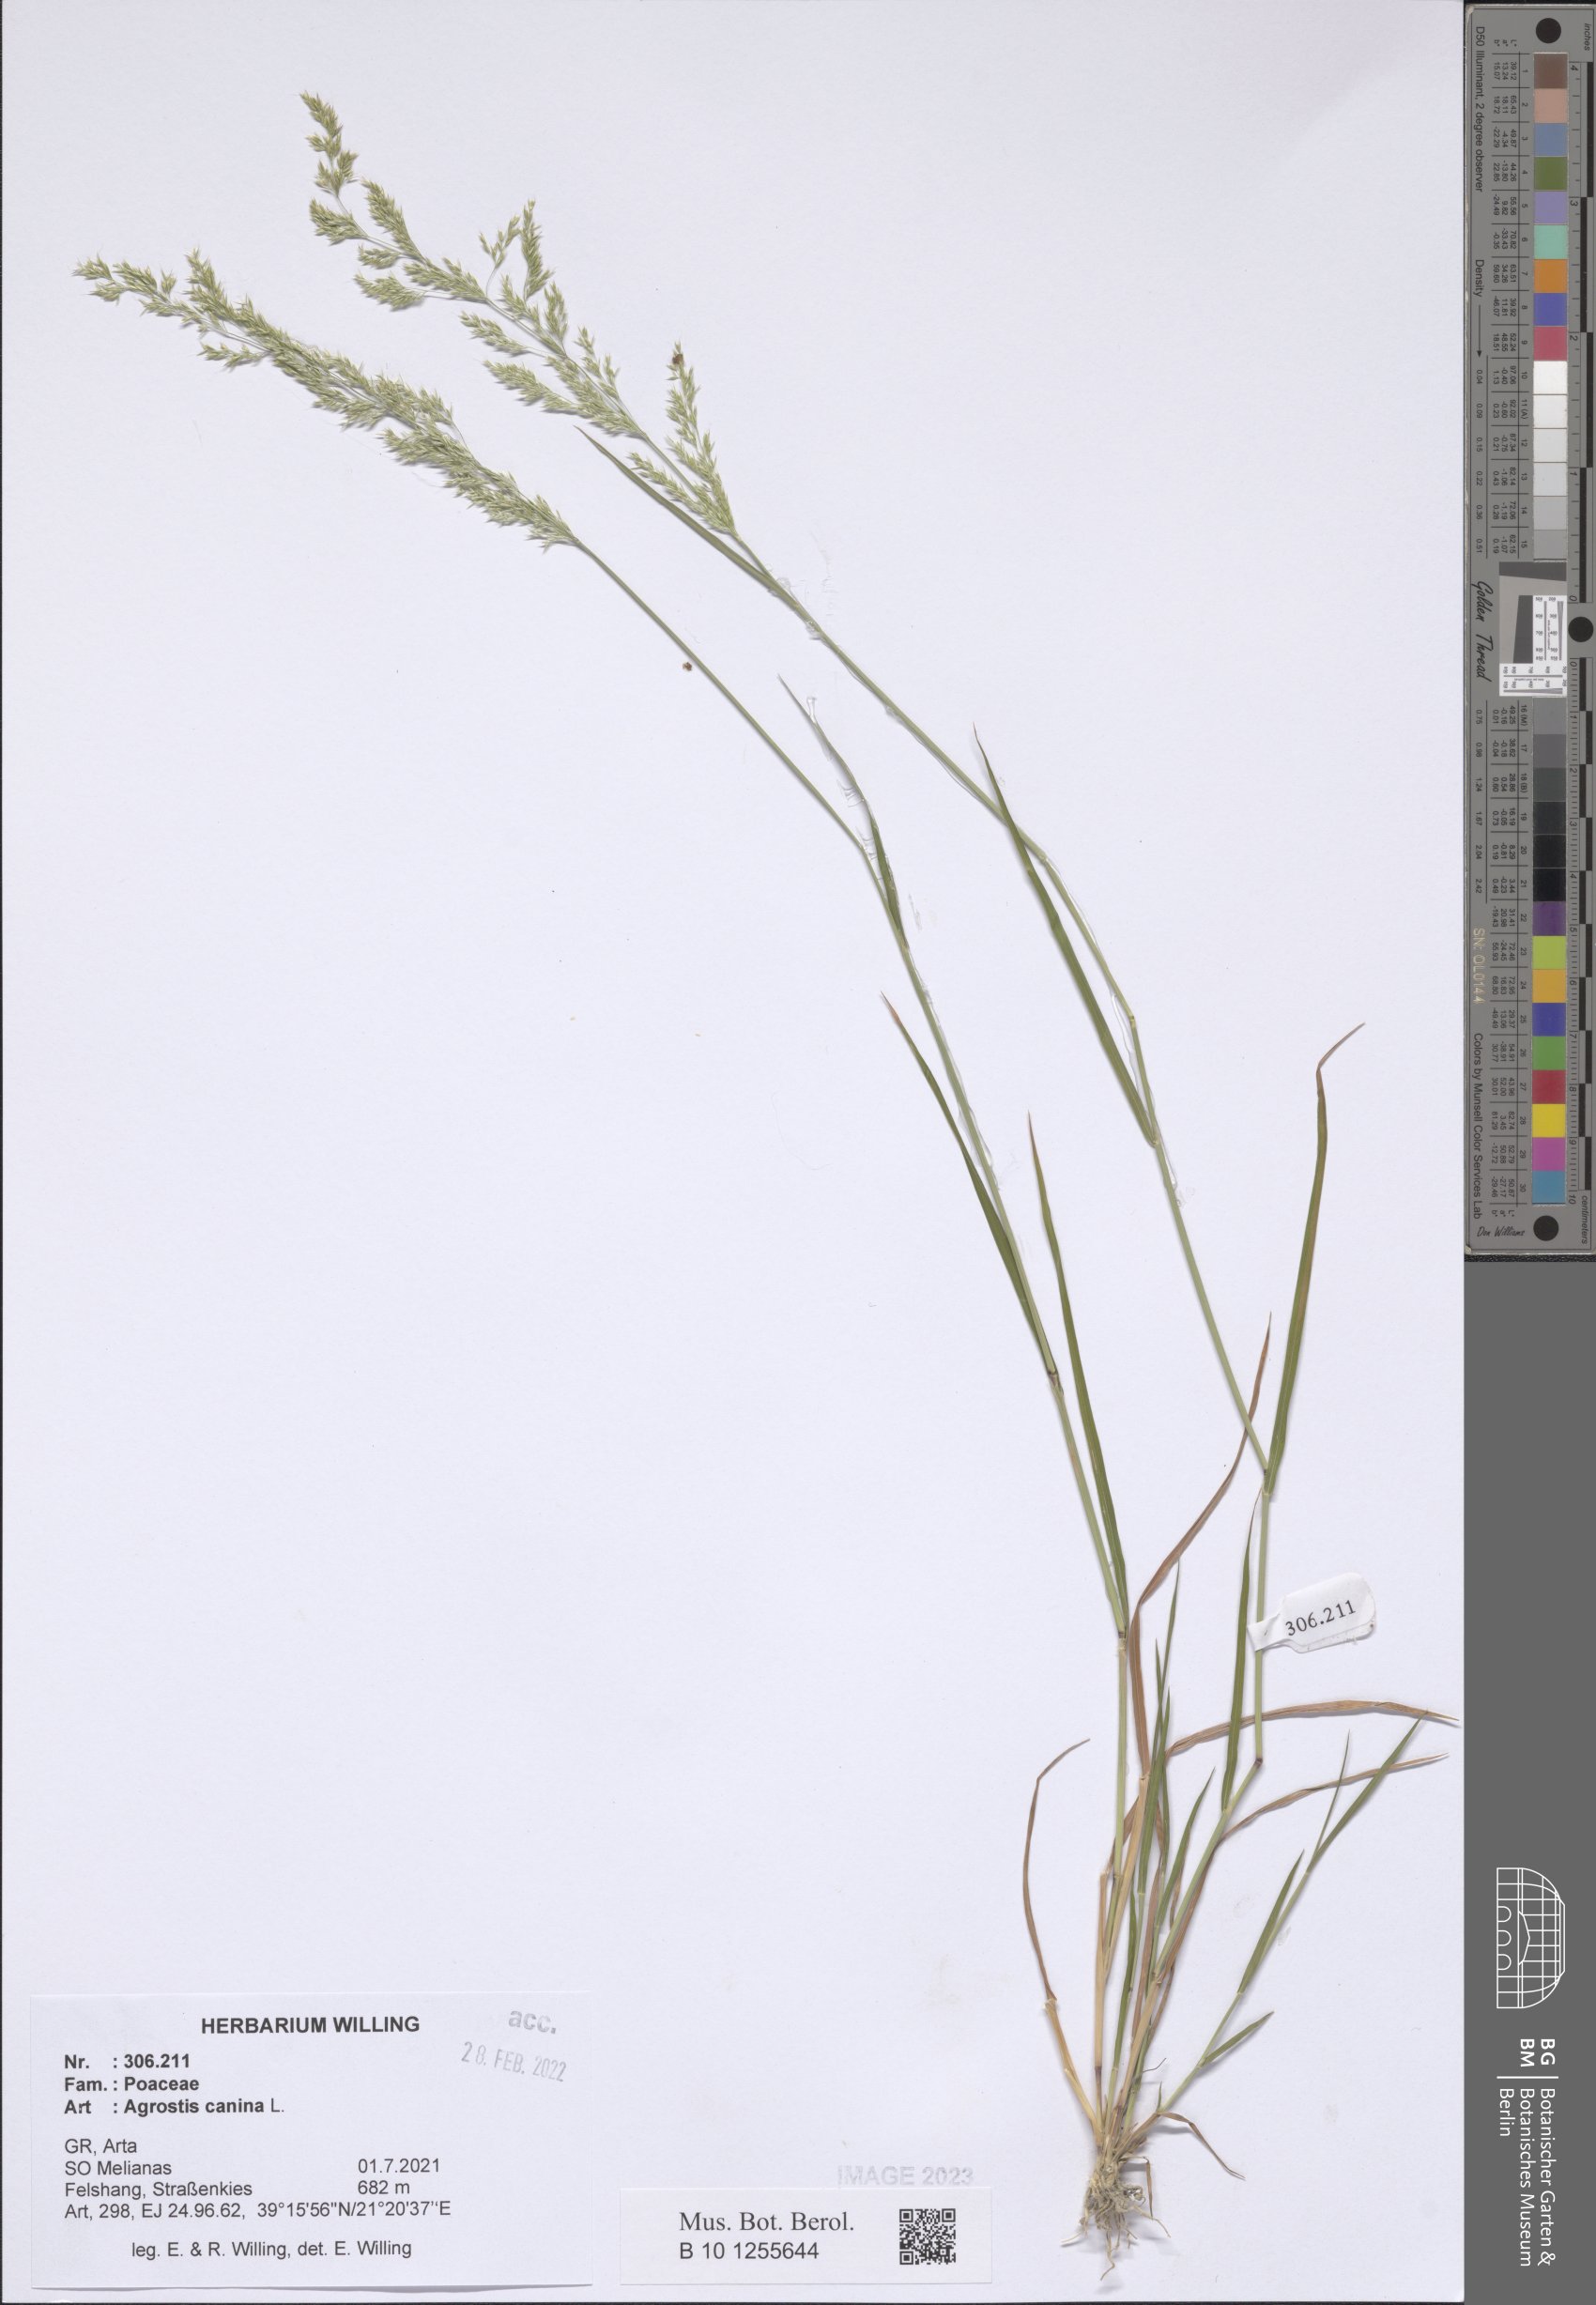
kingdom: Plantae
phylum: Tracheophyta
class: Liliopsida
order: Poales
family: Poaceae
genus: Agrostis
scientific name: Agrostis canina
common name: Velvet bent
